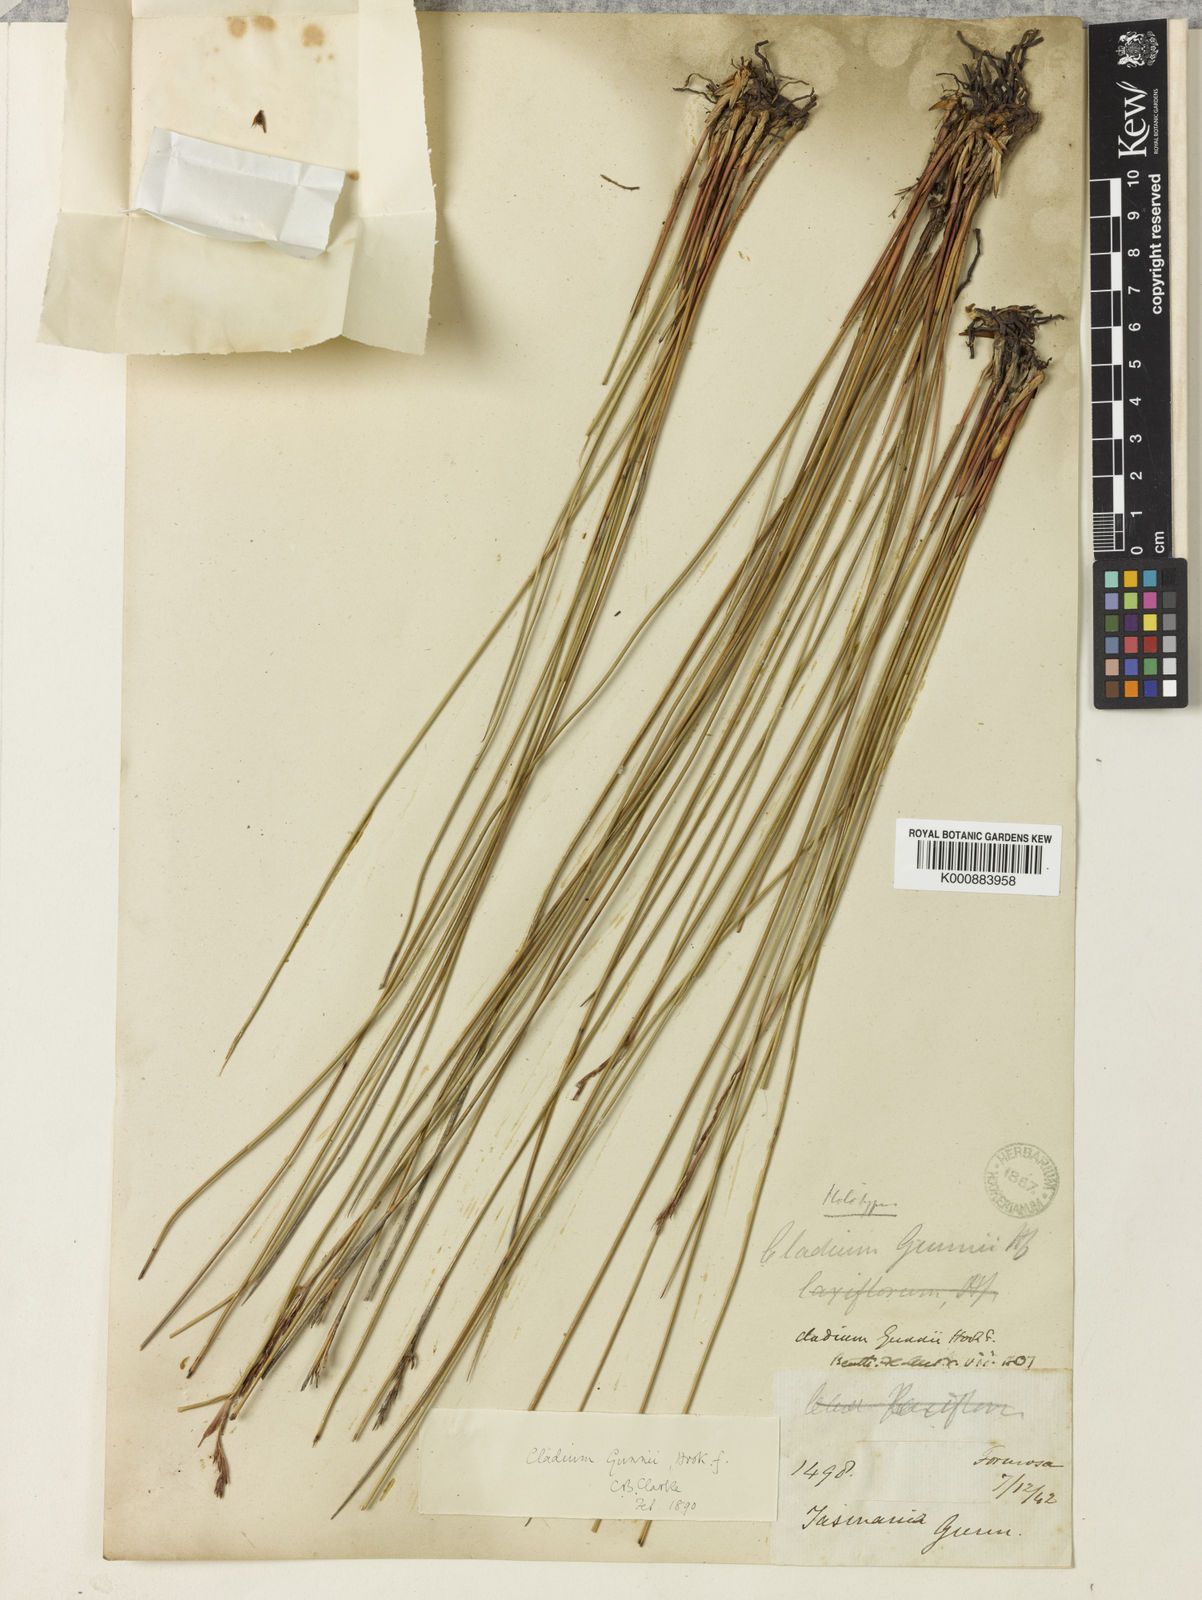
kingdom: Plantae
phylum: Tracheophyta
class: Liliopsida
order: Poales
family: Cyperaceae
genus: Machaerina
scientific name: Machaerina gunnii
